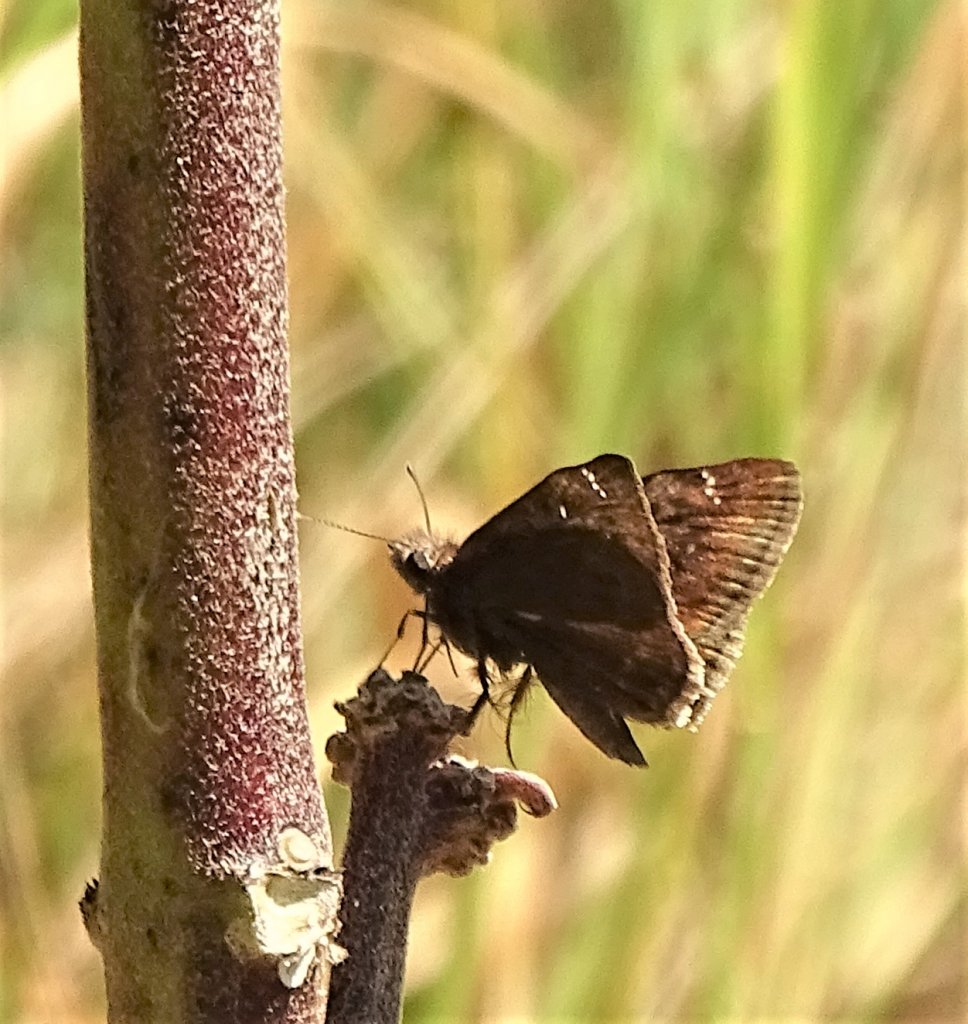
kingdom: Animalia
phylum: Arthropoda
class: Insecta
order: Lepidoptera
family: Hesperiidae
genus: Gesta
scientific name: Gesta
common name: Wild Indigo Duskywing
